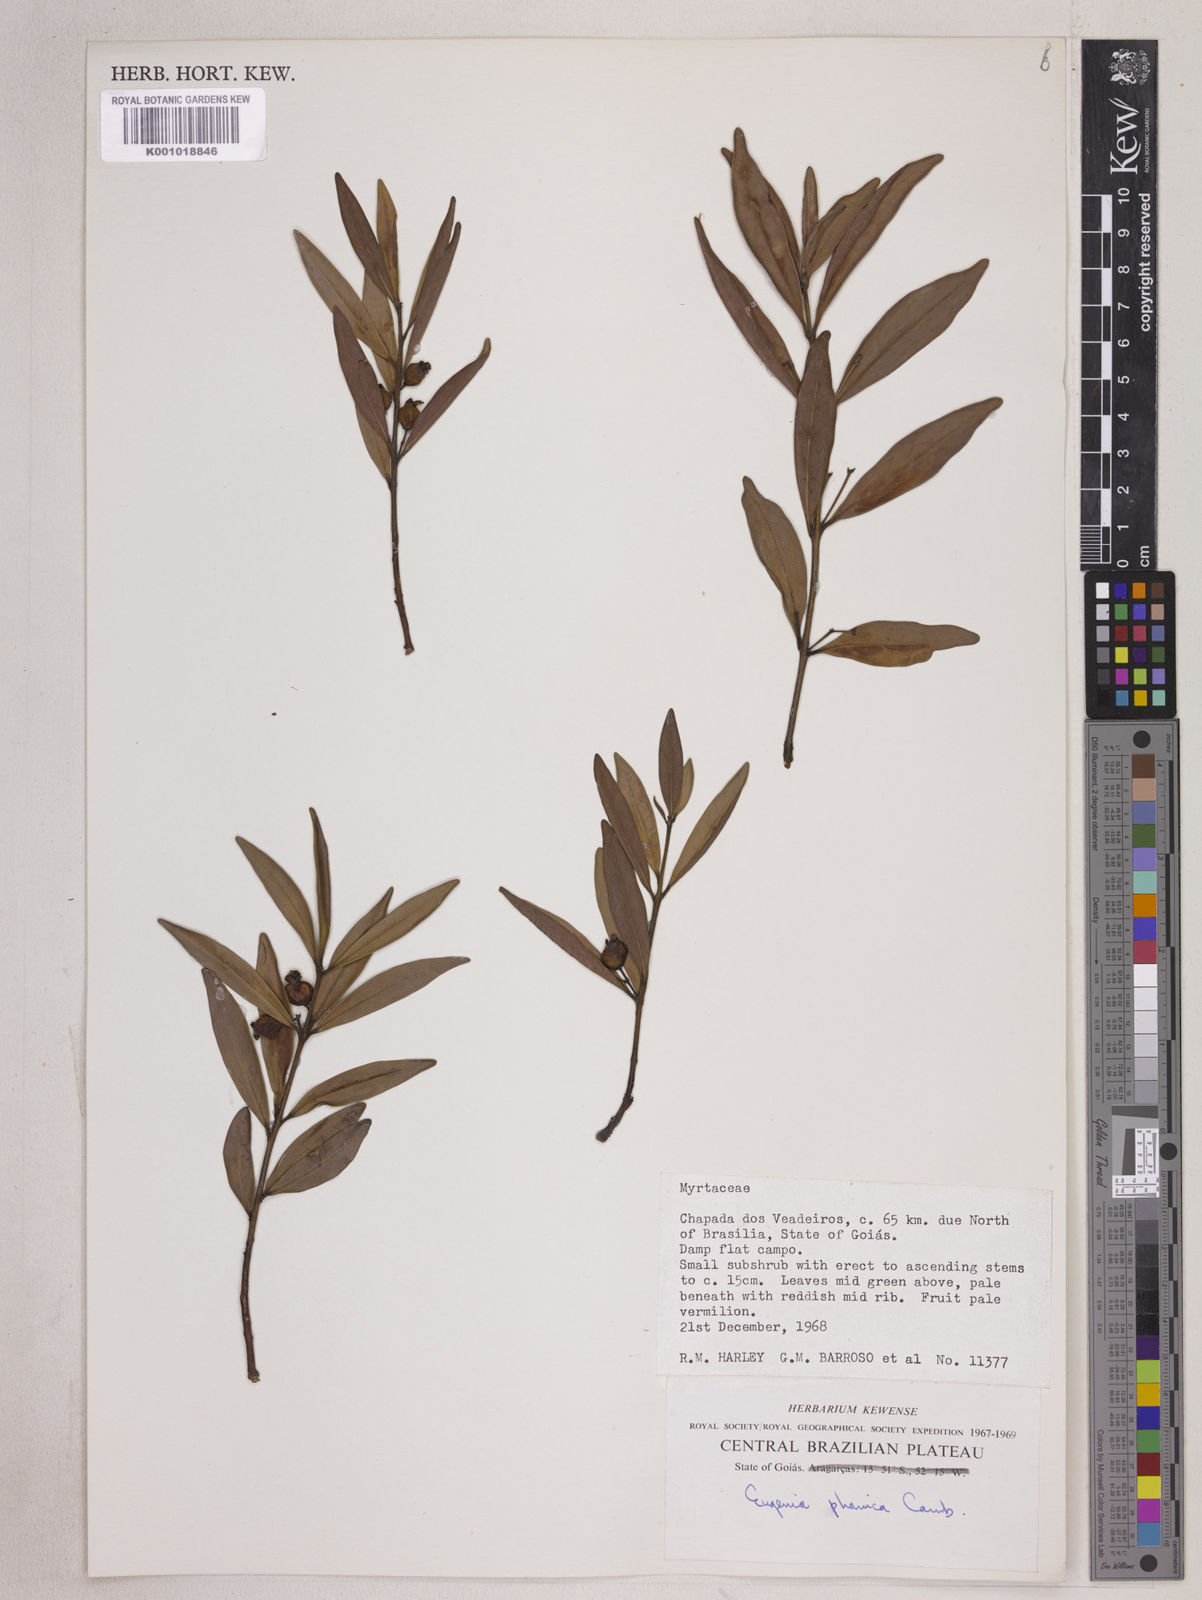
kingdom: Plantae
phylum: Tracheophyta
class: Magnoliopsida
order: Myrtales
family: Myrtaceae
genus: Eugenia
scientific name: Eugenia cristaensis
